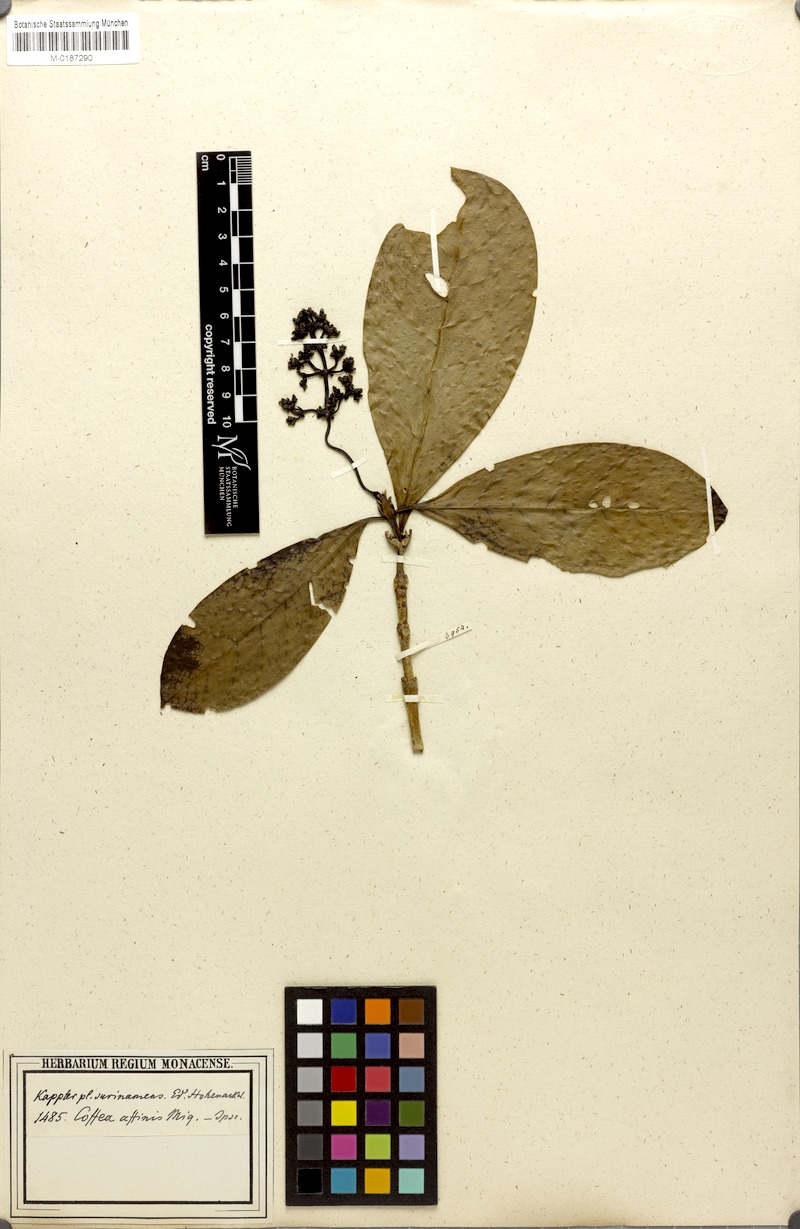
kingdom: Plantae
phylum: Tracheophyta
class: Magnoliopsida
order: Gentianales
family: Rubiaceae
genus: Coffea
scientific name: Coffea affinis
